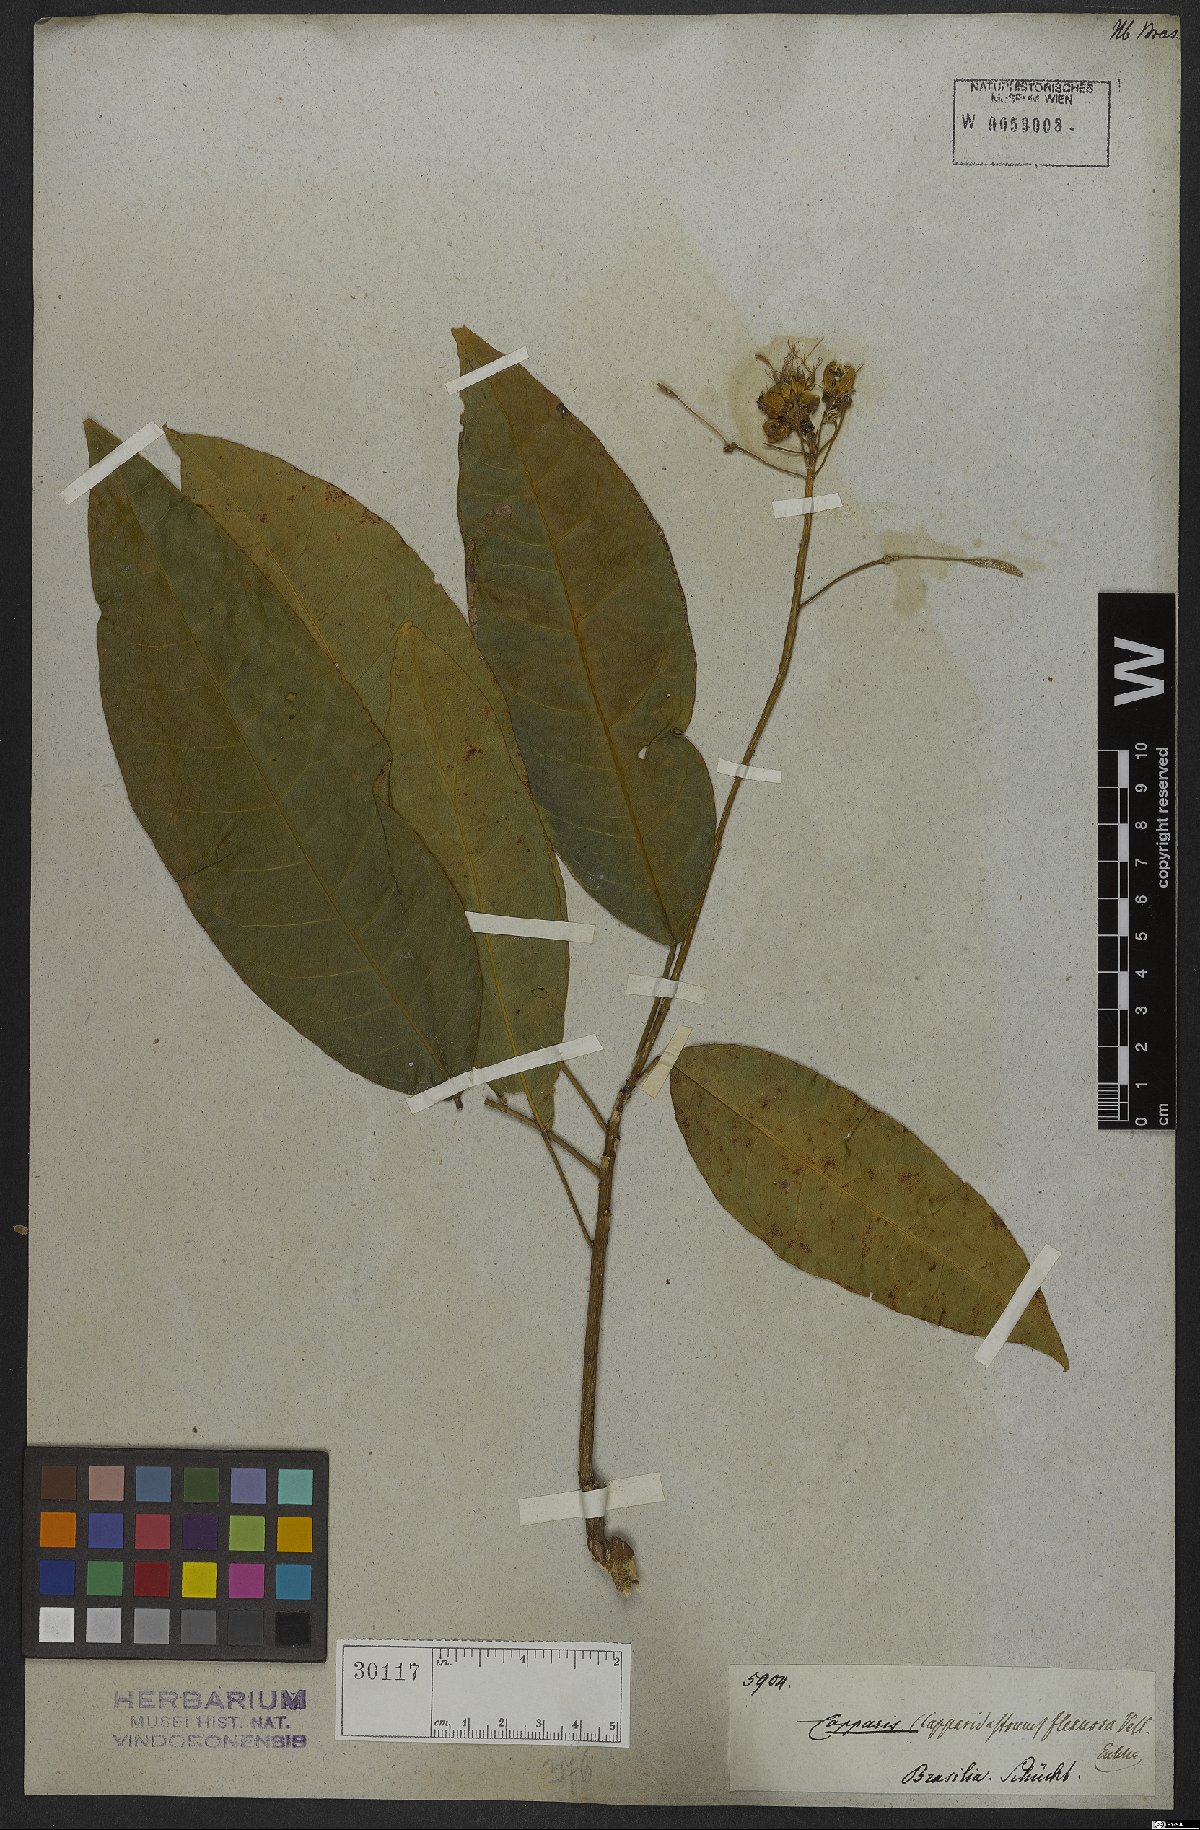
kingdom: Plantae
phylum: Tracheophyta
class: Magnoliopsida
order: Brassicales
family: Capparaceae
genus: Cynophalla
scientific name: Cynophalla flexuosa
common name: Capertree
